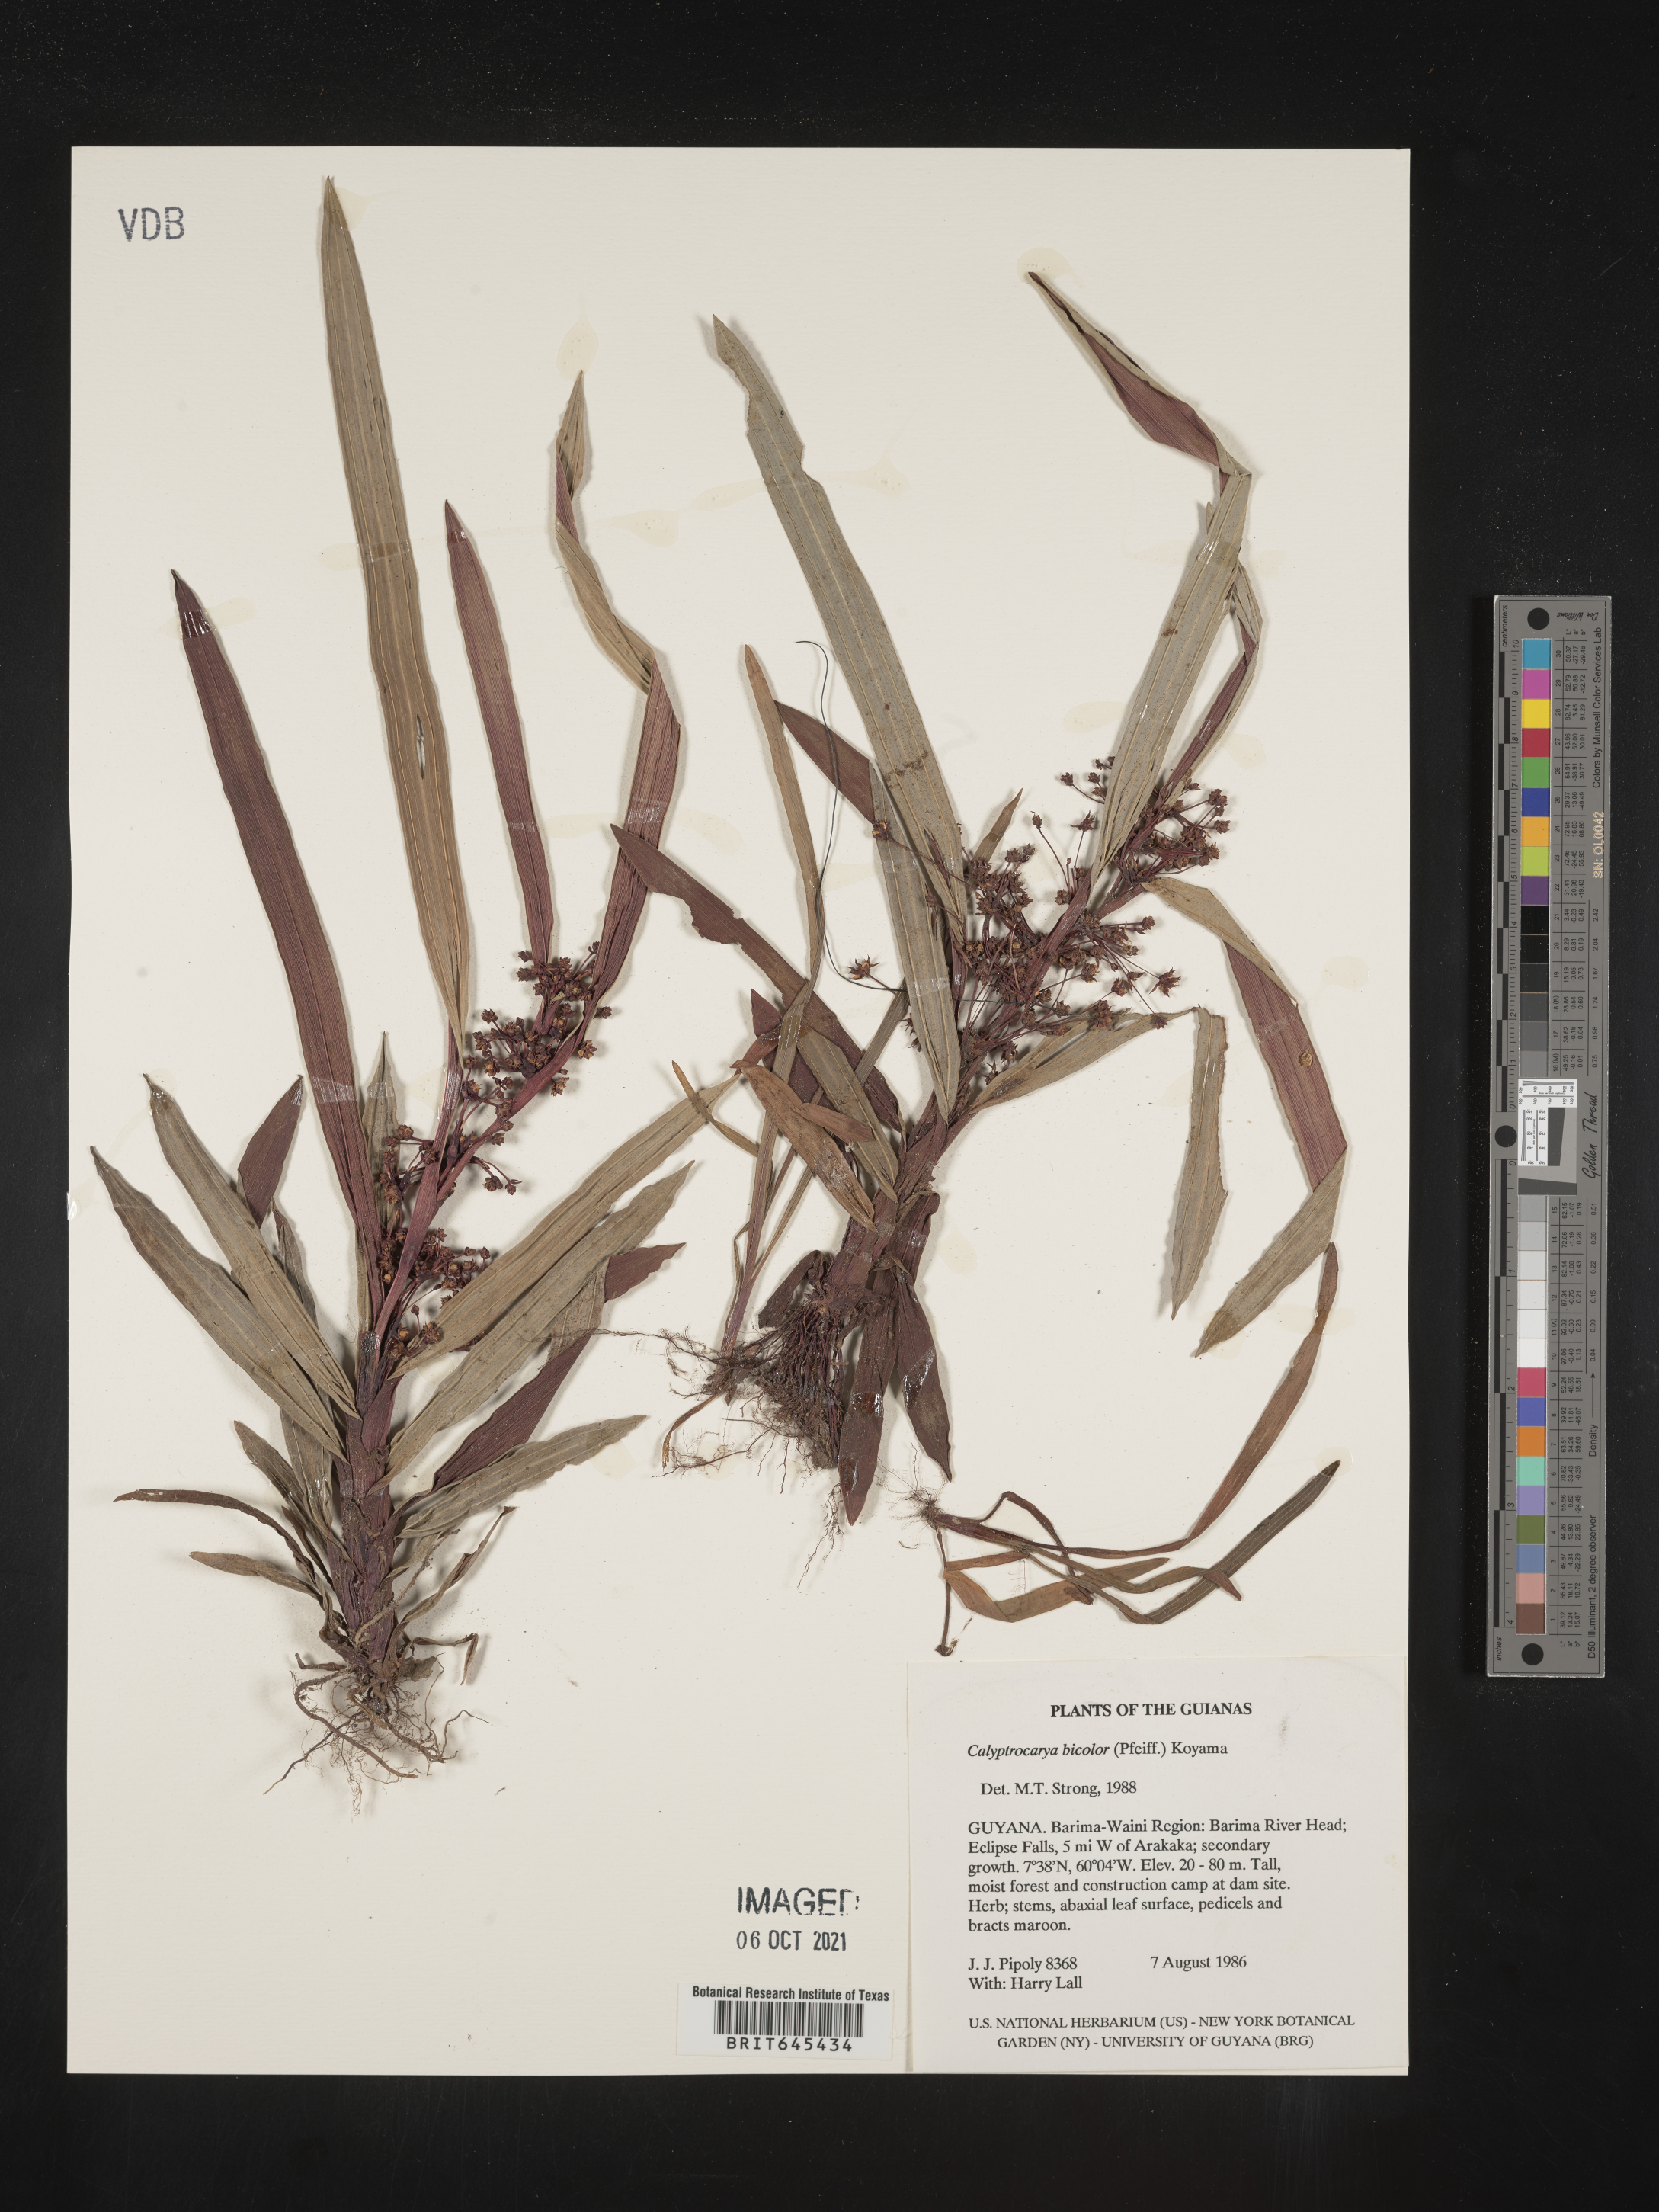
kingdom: Plantae
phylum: Tracheophyta
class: Liliopsida
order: Poales
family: Cyperaceae
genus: Calyptrocarya
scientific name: Calyptrocarya bicolor
